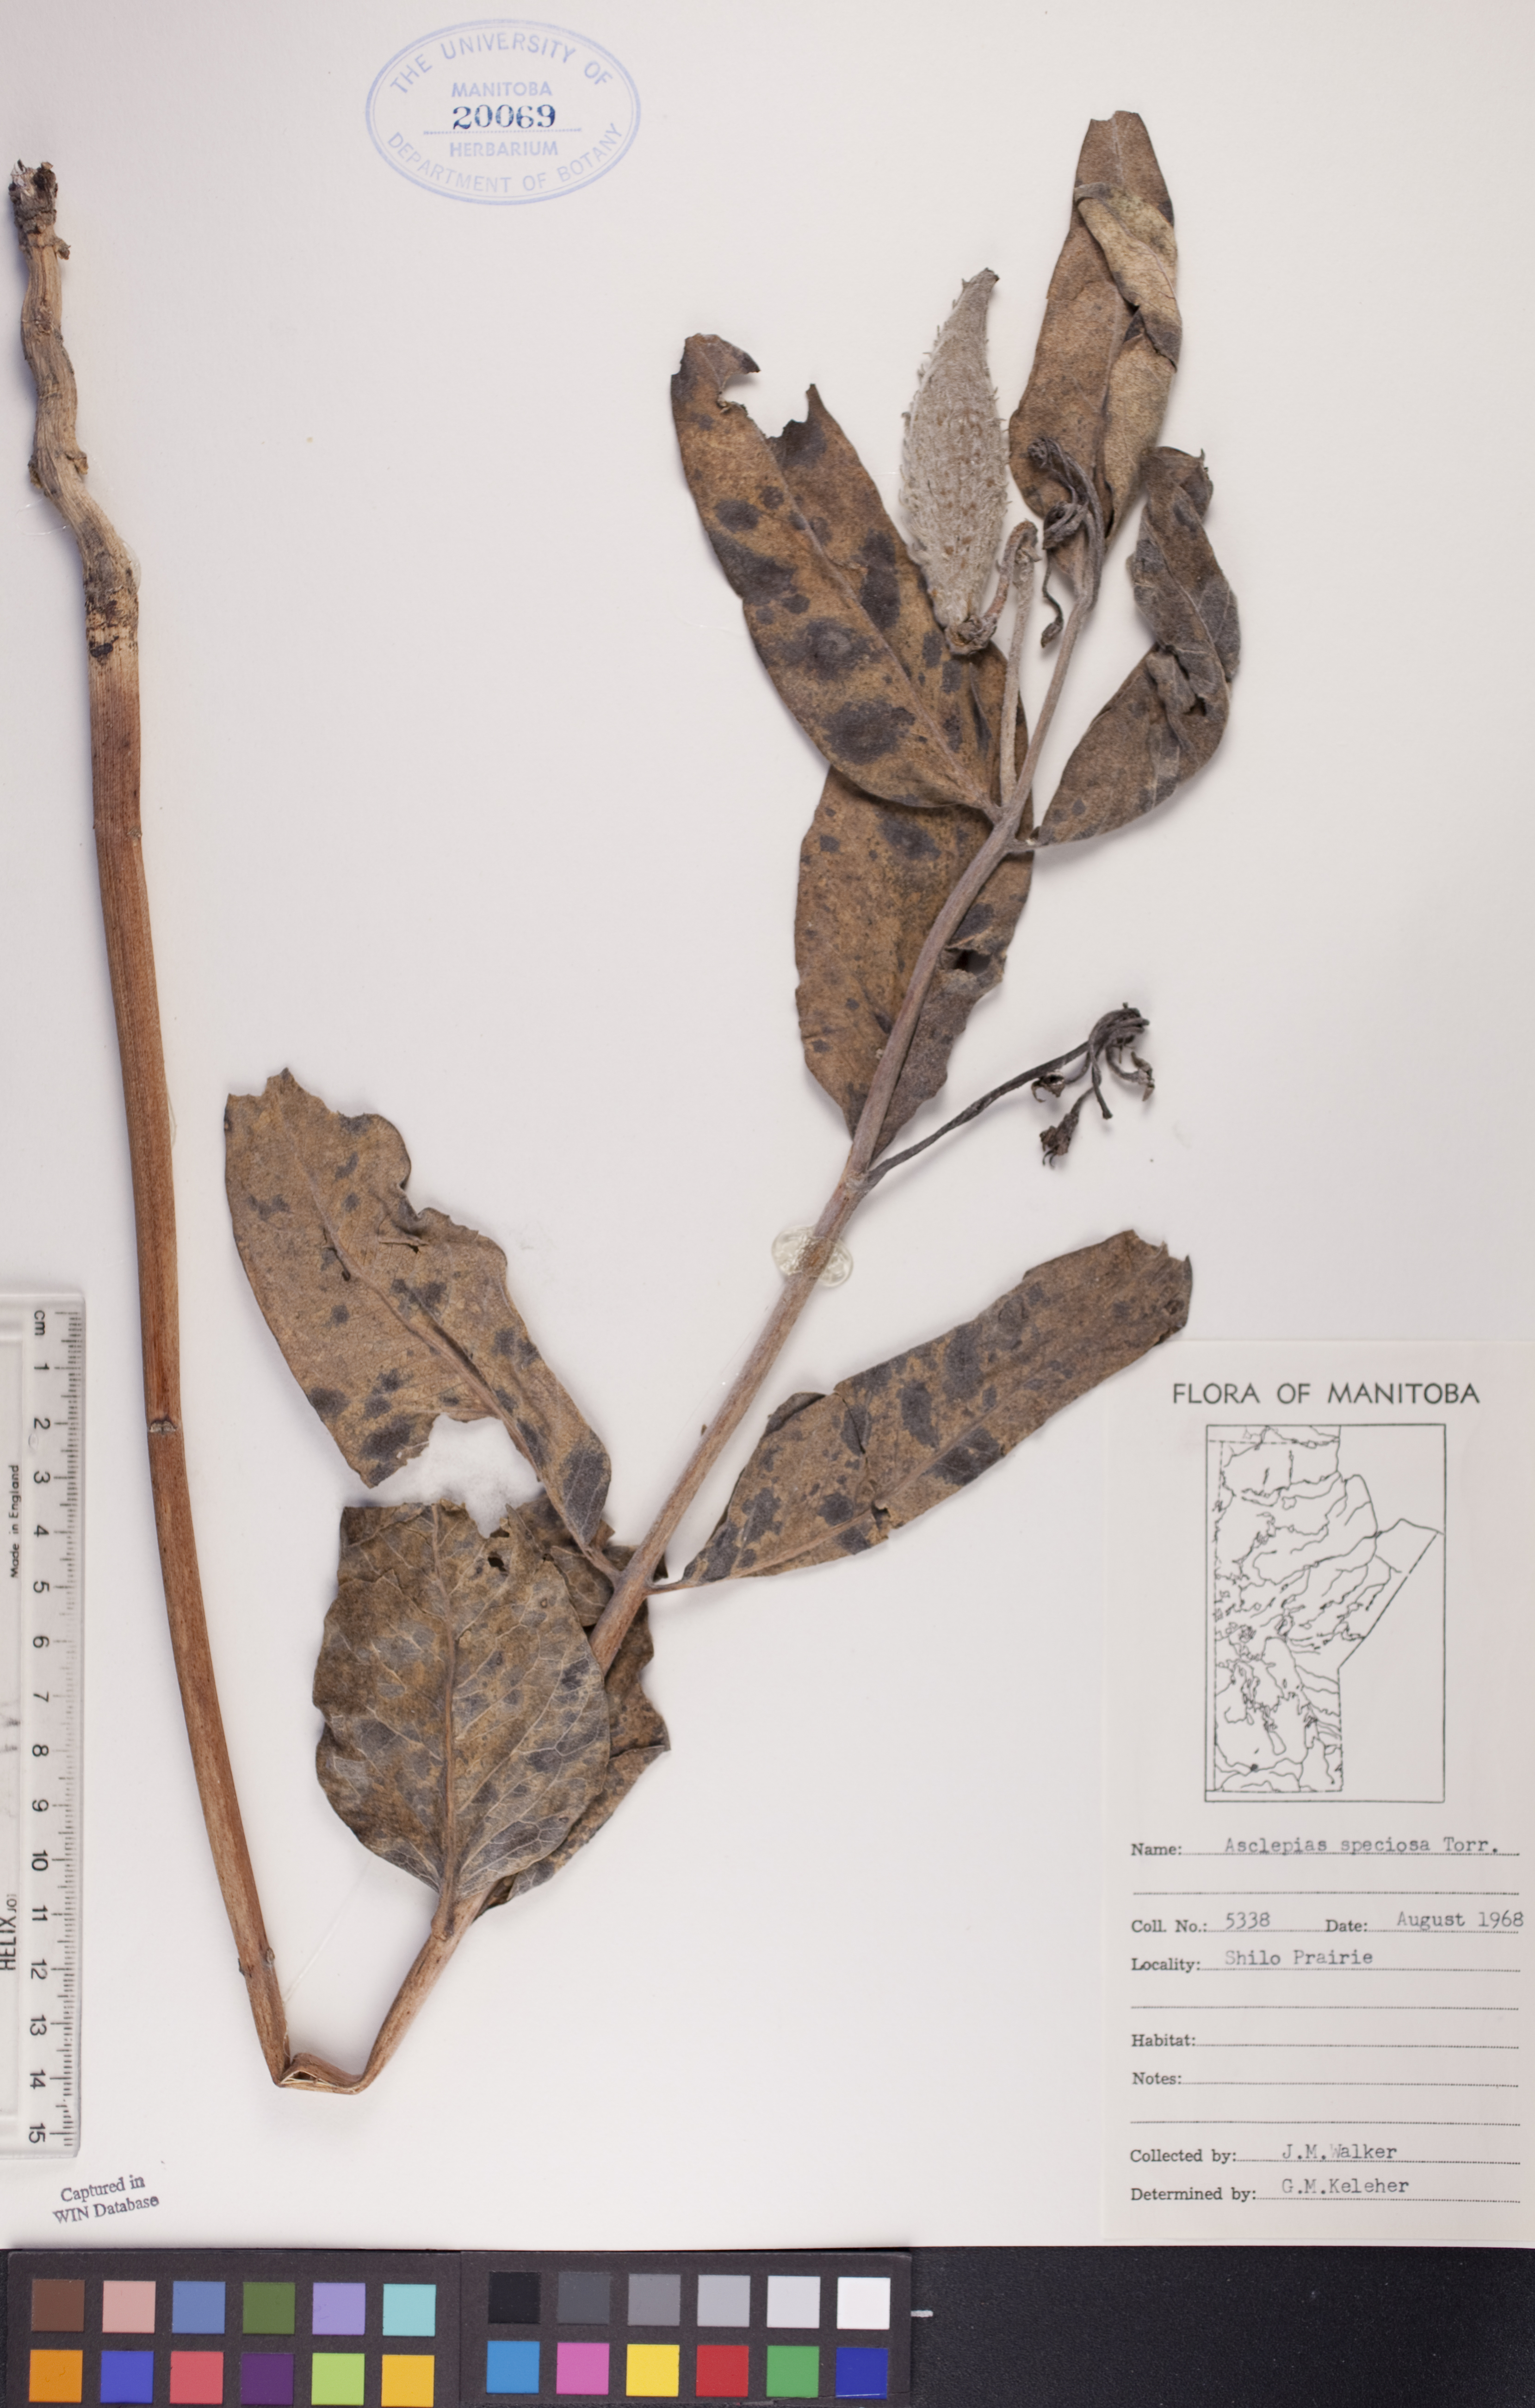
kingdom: Plantae
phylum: Tracheophyta
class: Magnoliopsida
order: Gentianales
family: Apocynaceae
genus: Asclepias
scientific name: Asclepias speciosa
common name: Showy milkweed
